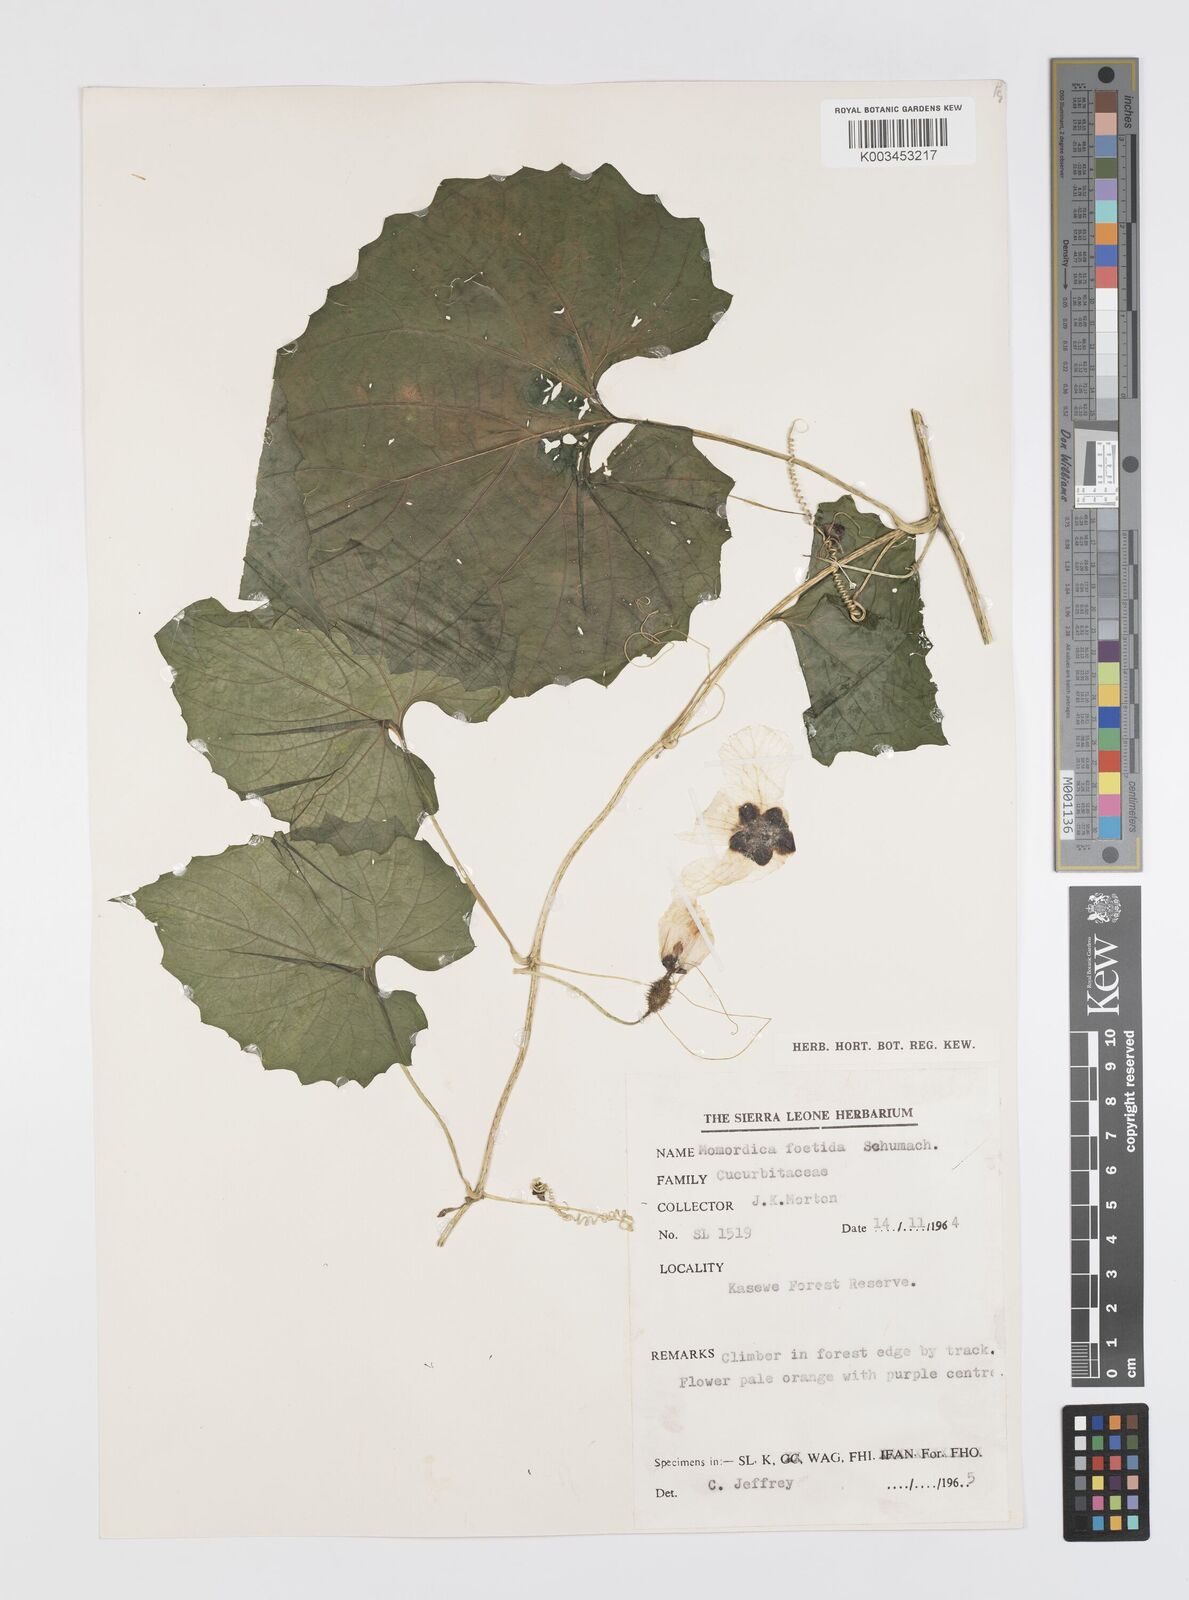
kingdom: Plantae
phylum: Tracheophyta
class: Magnoliopsida
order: Cucurbitales
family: Cucurbitaceae
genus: Momordica
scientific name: Momordica foetida
